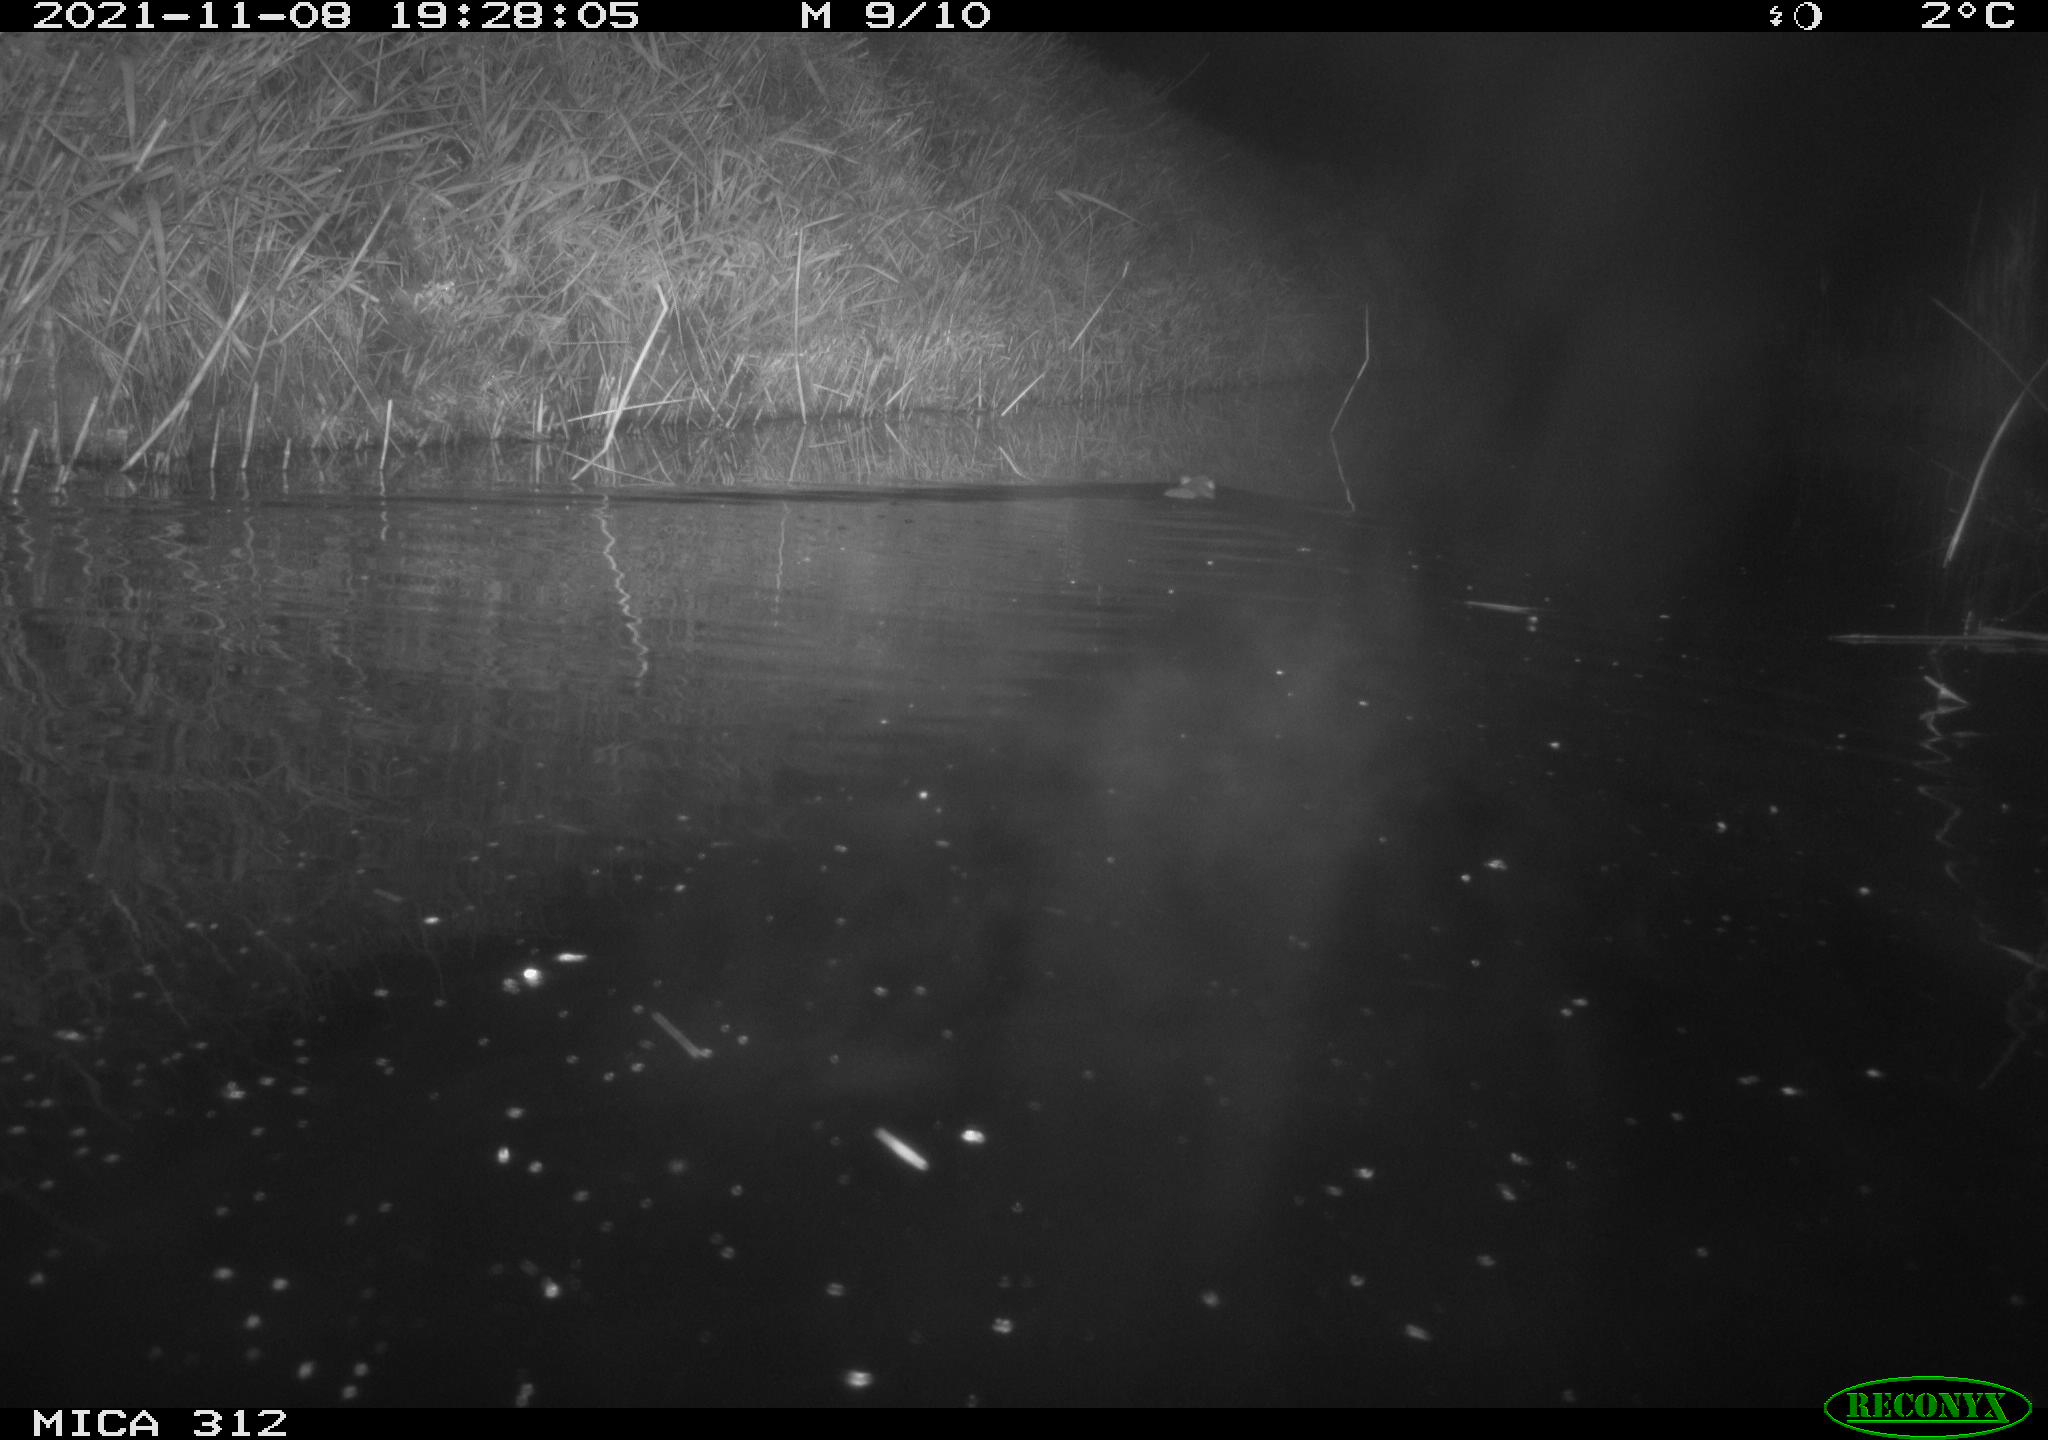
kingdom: Animalia
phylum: Chordata
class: Mammalia
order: Rodentia
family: Muridae
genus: Rattus
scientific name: Rattus norvegicus
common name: Brown rat
